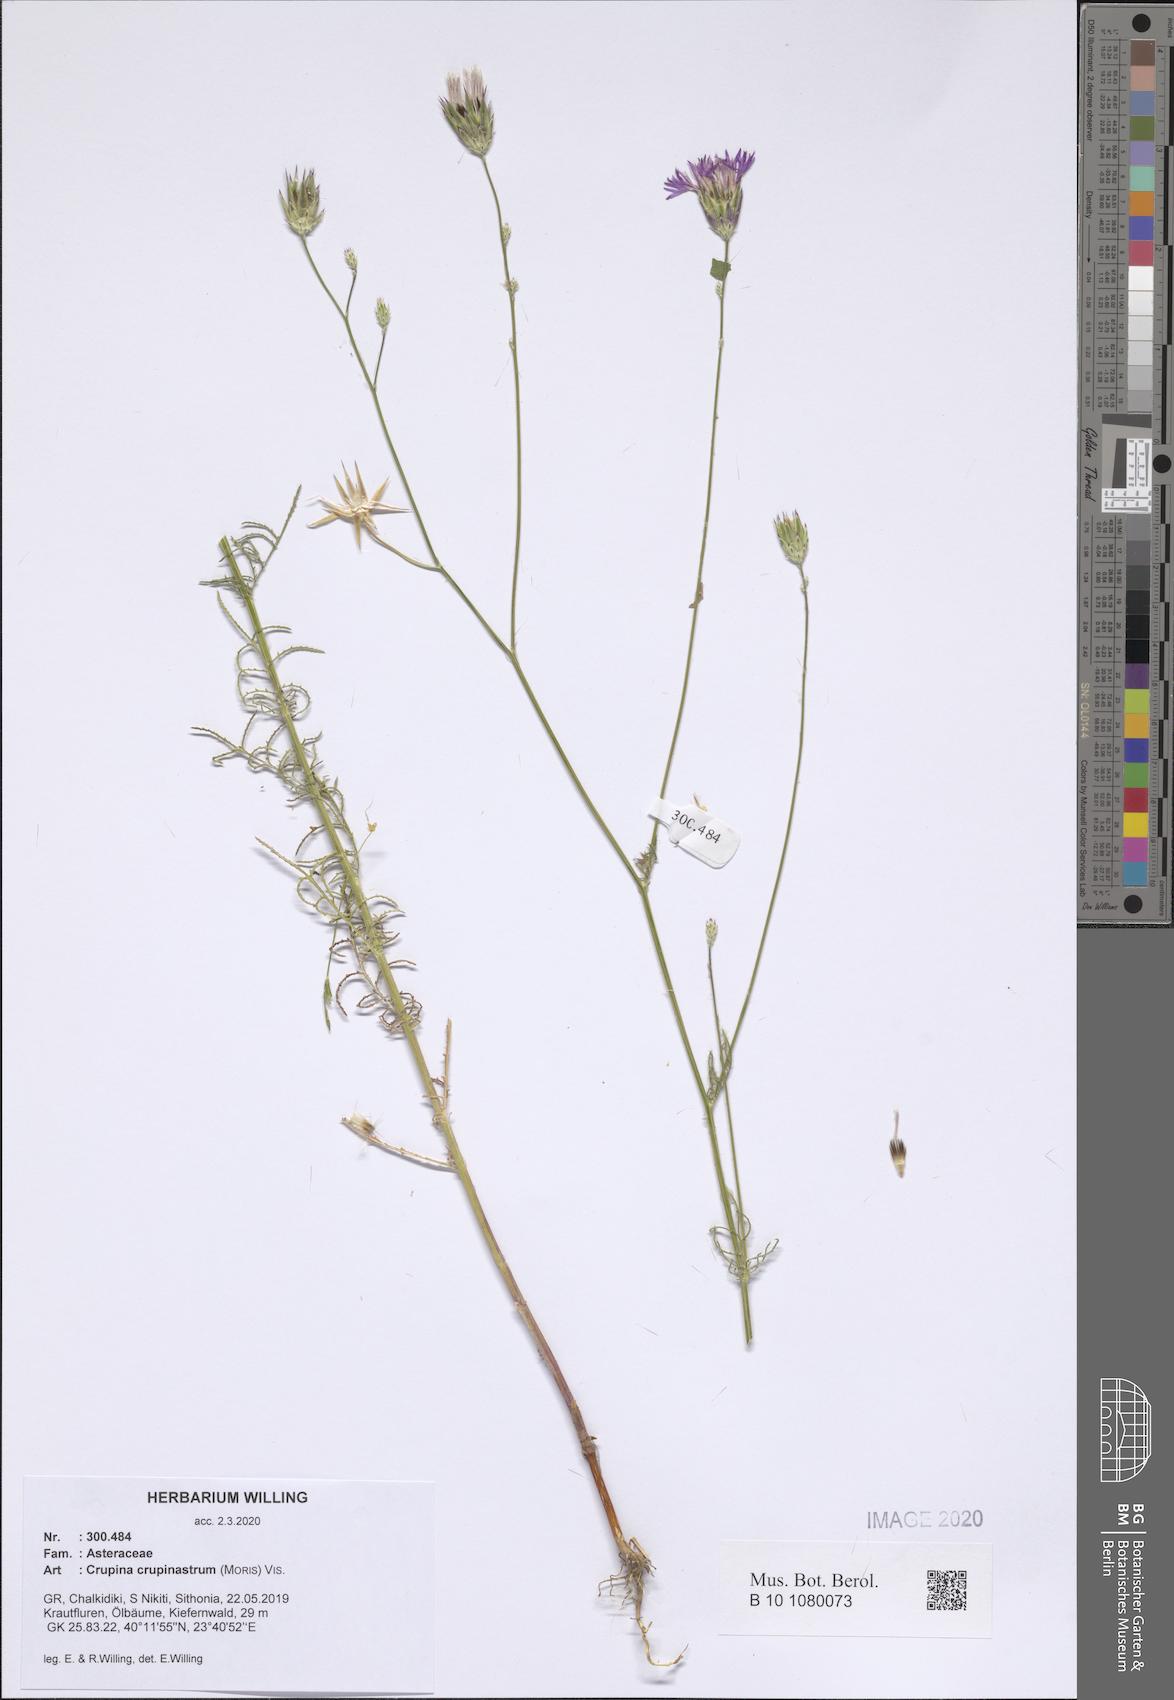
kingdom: Plantae
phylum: Tracheophyta
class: Magnoliopsida
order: Asterales
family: Asteraceae
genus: Crupina
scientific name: Crupina crupinastrum
